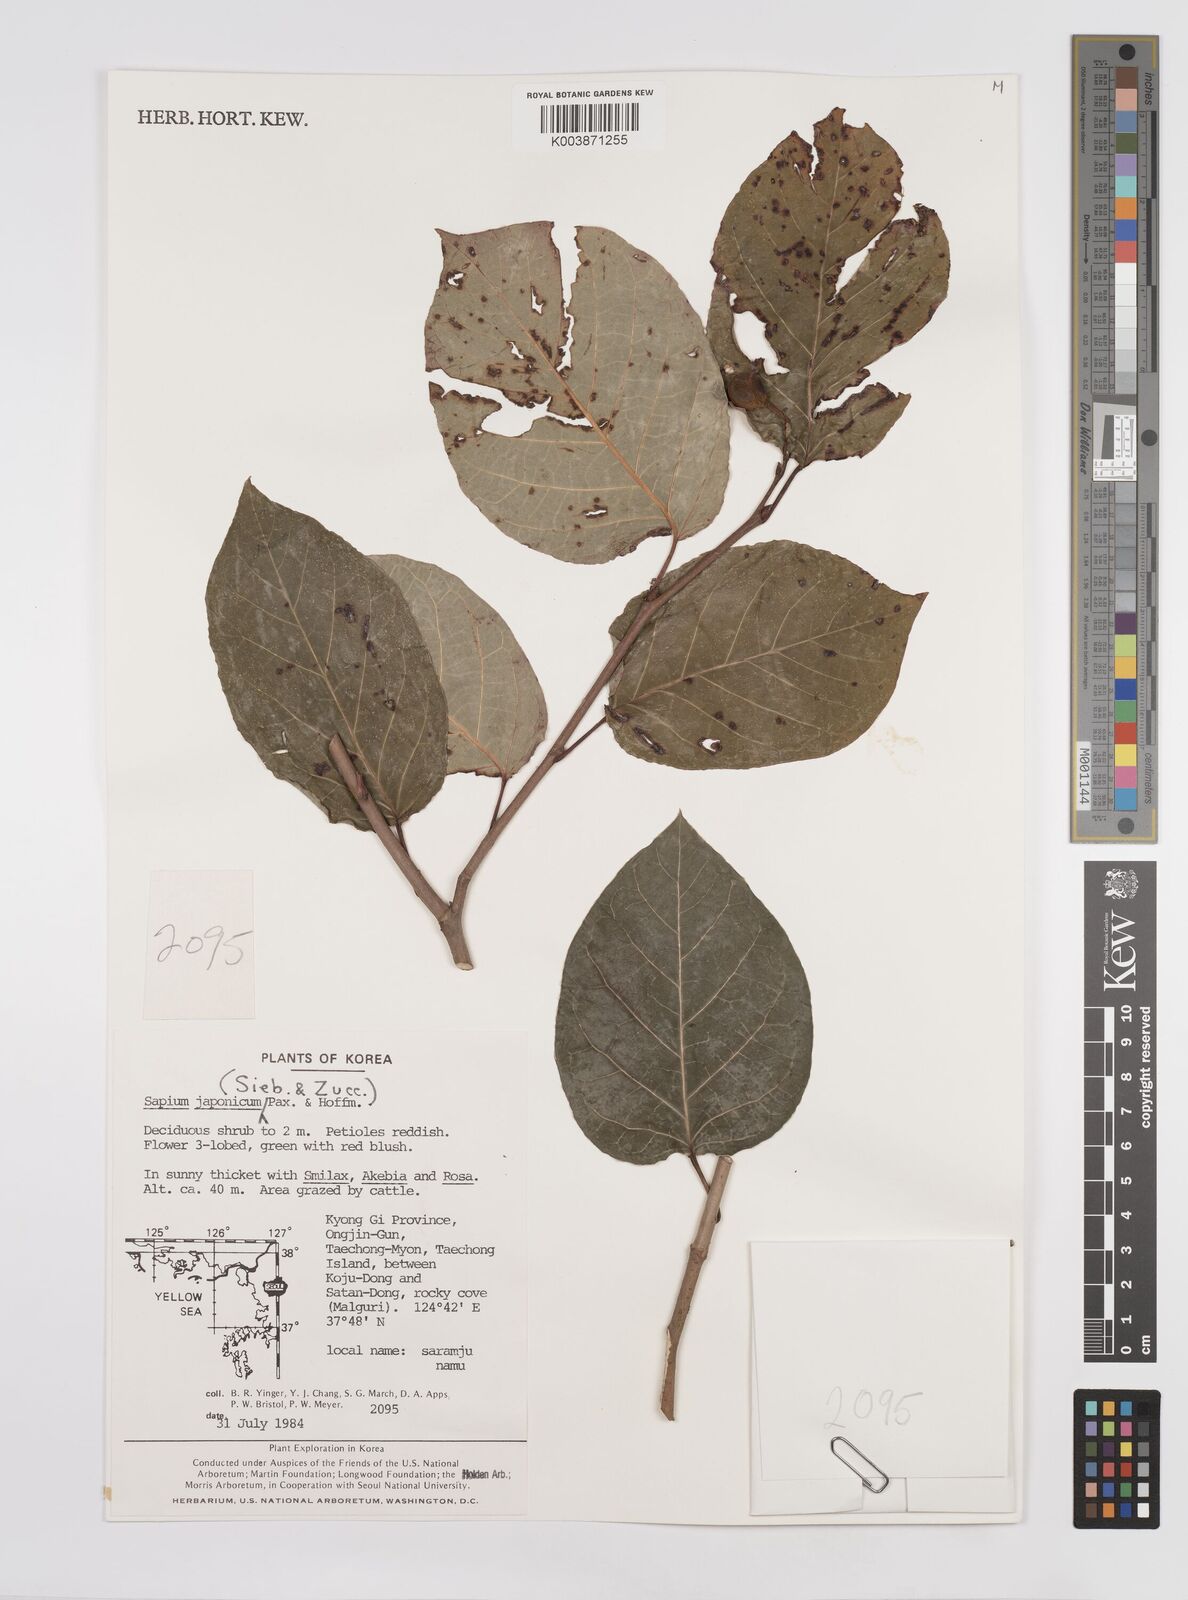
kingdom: Plantae
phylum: Tracheophyta
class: Magnoliopsida
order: Malpighiales
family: Euphorbiaceae
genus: Neoshirakia
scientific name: Neoshirakia japonica
